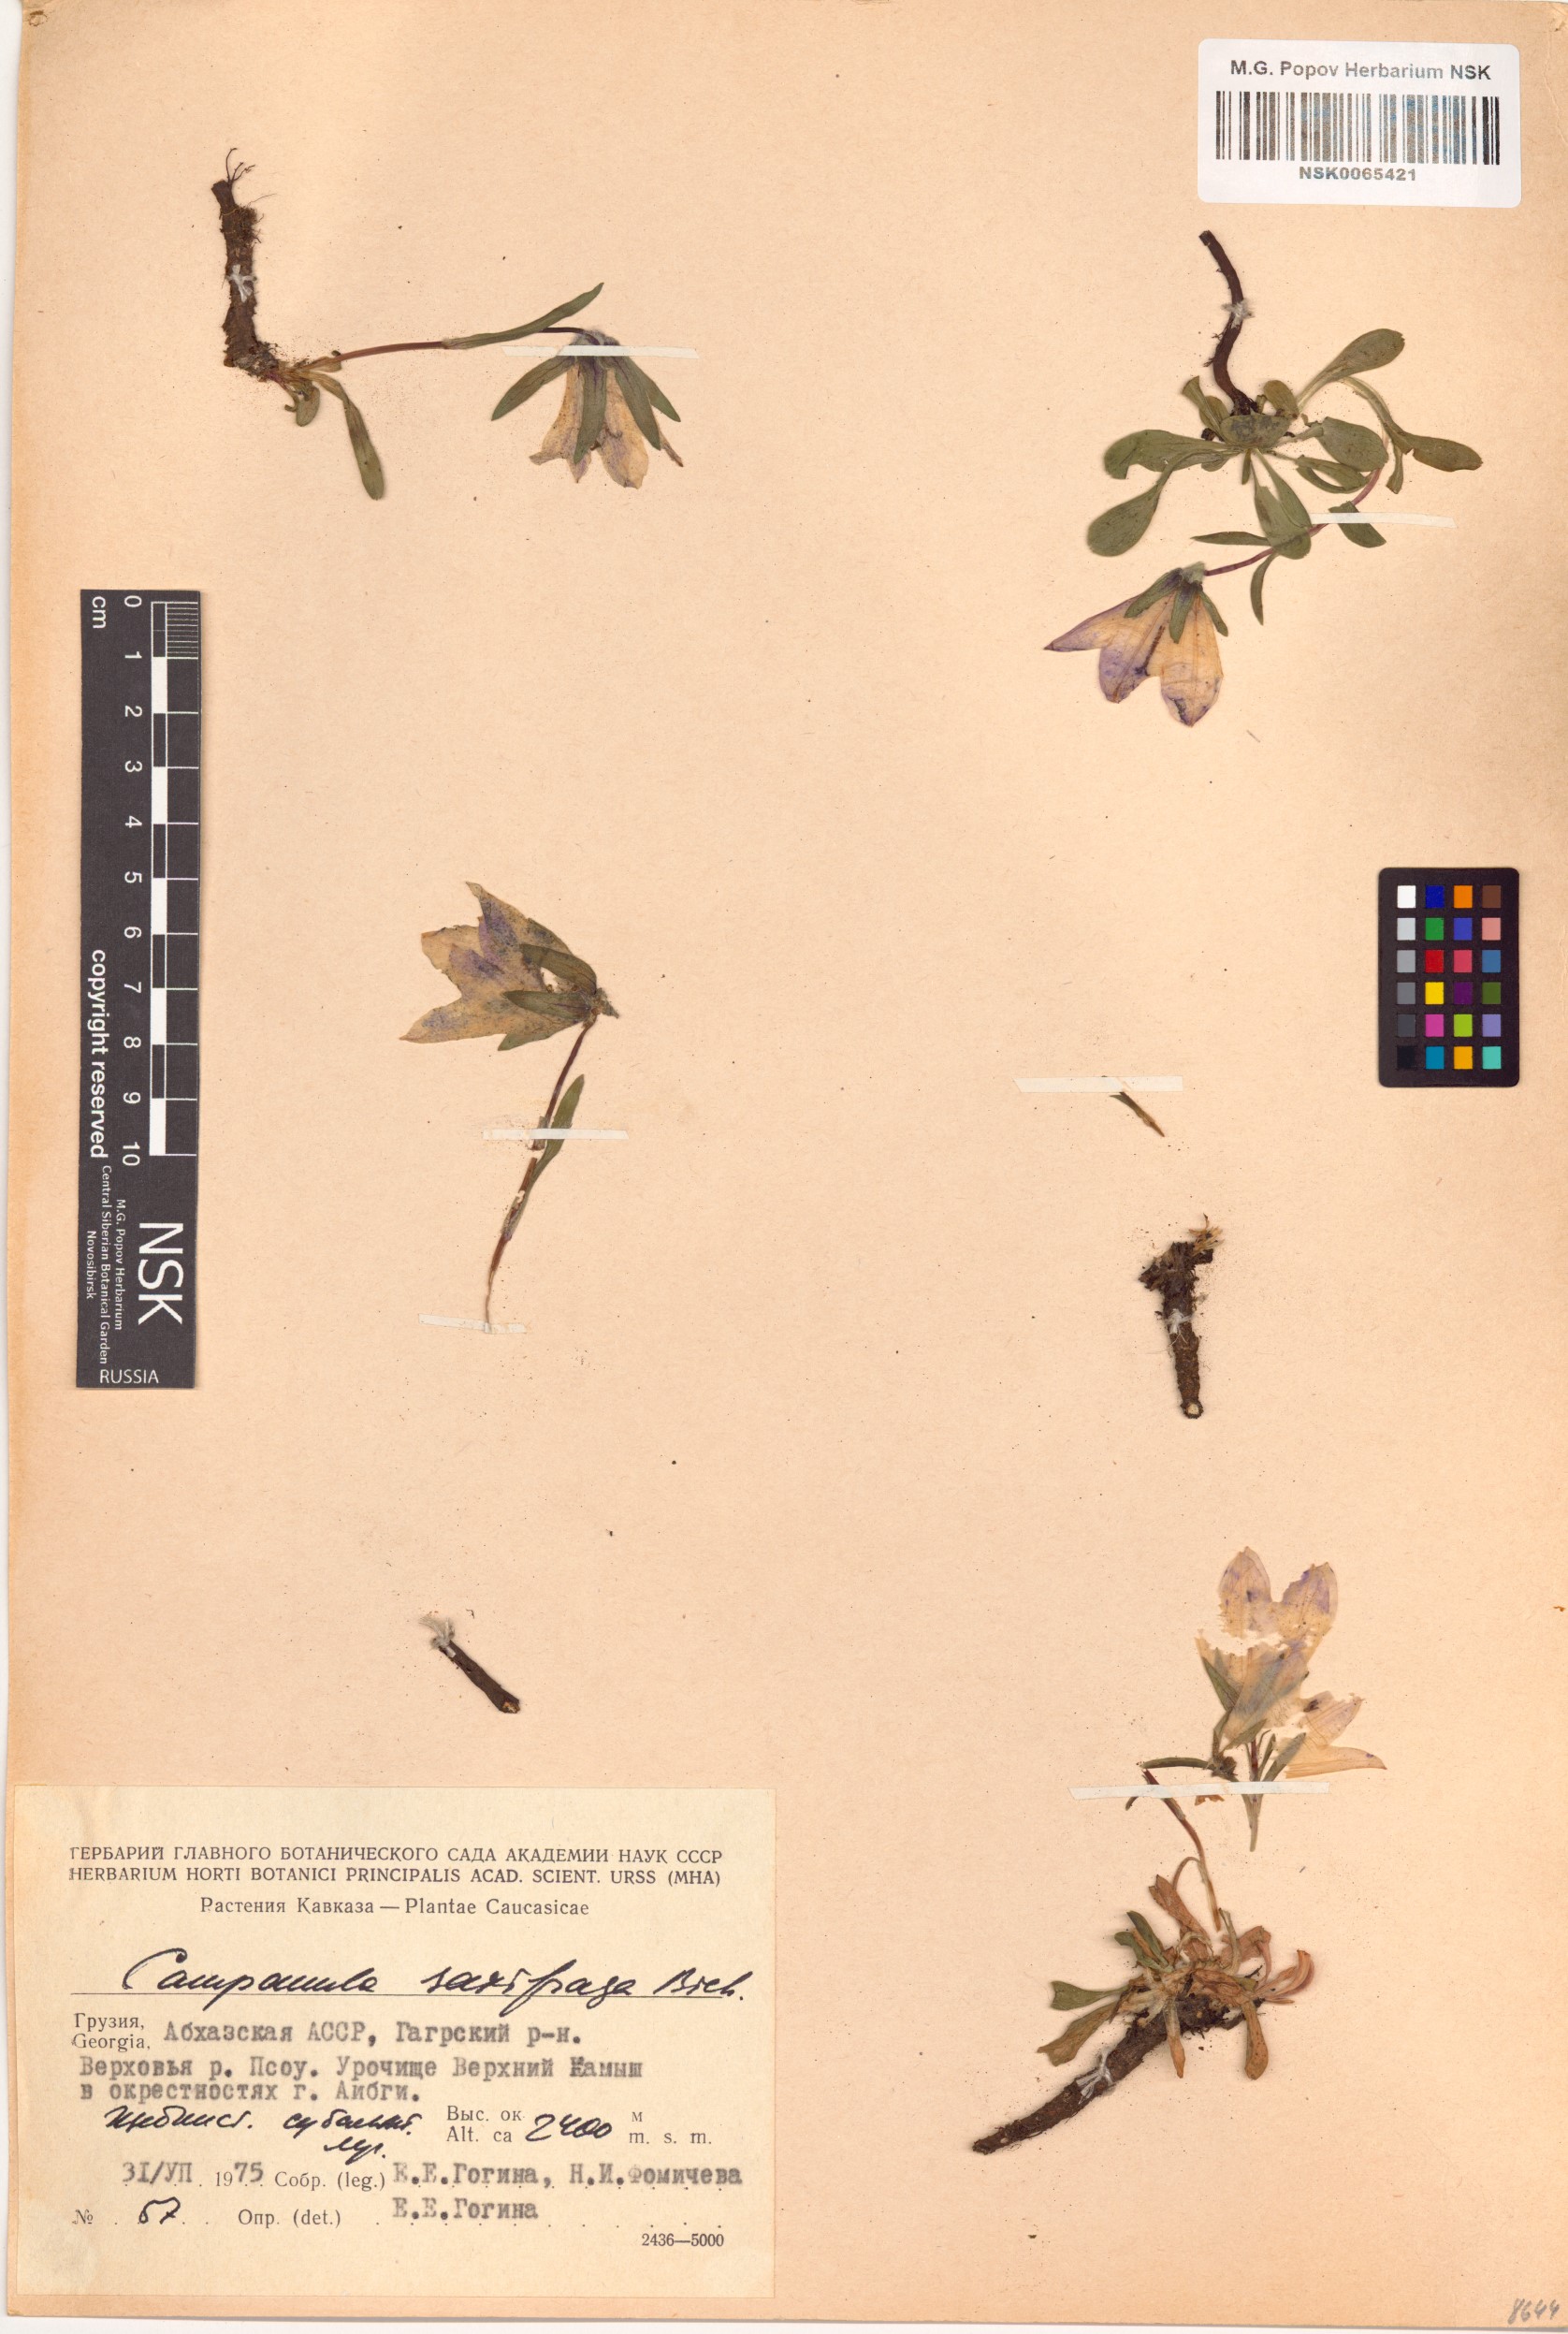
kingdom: Plantae
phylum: Tracheophyta
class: Magnoliopsida
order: Asterales
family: Campanulaceae
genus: Campanula
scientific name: Campanula saxifraga
